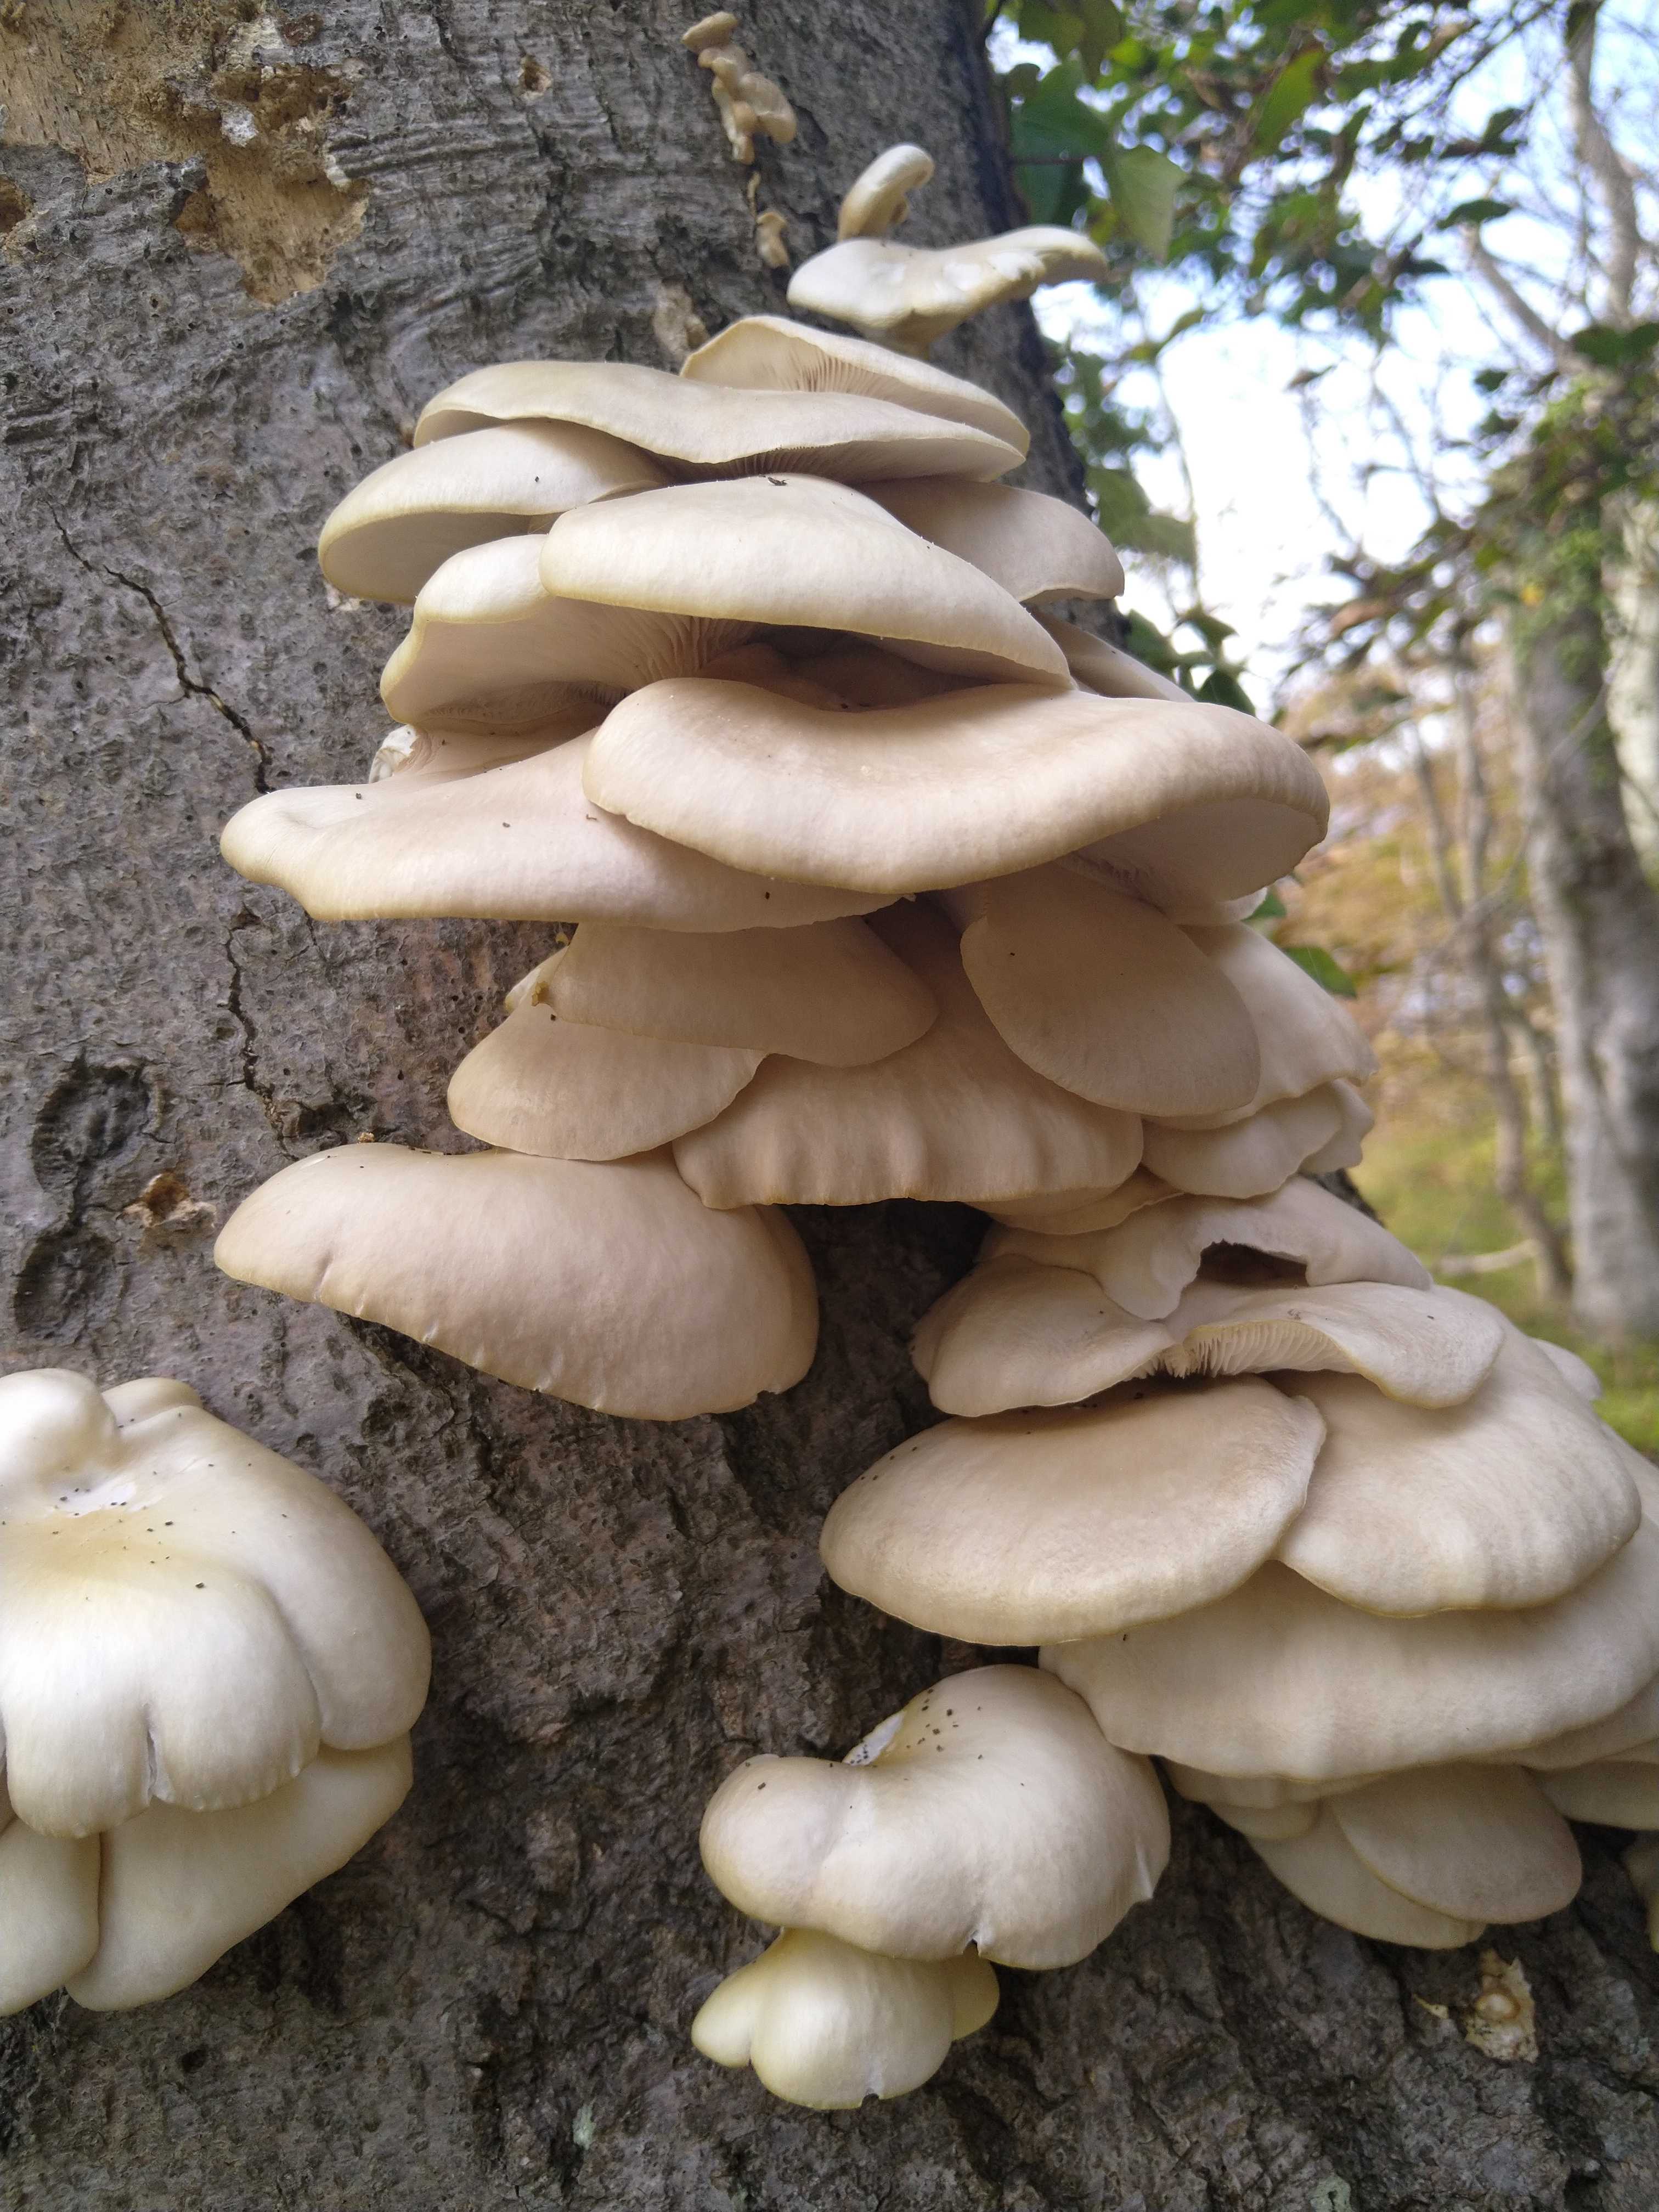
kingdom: Fungi
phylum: Basidiomycota
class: Agaricomycetes
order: Agaricales
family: Pleurotaceae
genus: Pleurotus
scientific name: Pleurotus pulmonarius
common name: sommer-østershat
